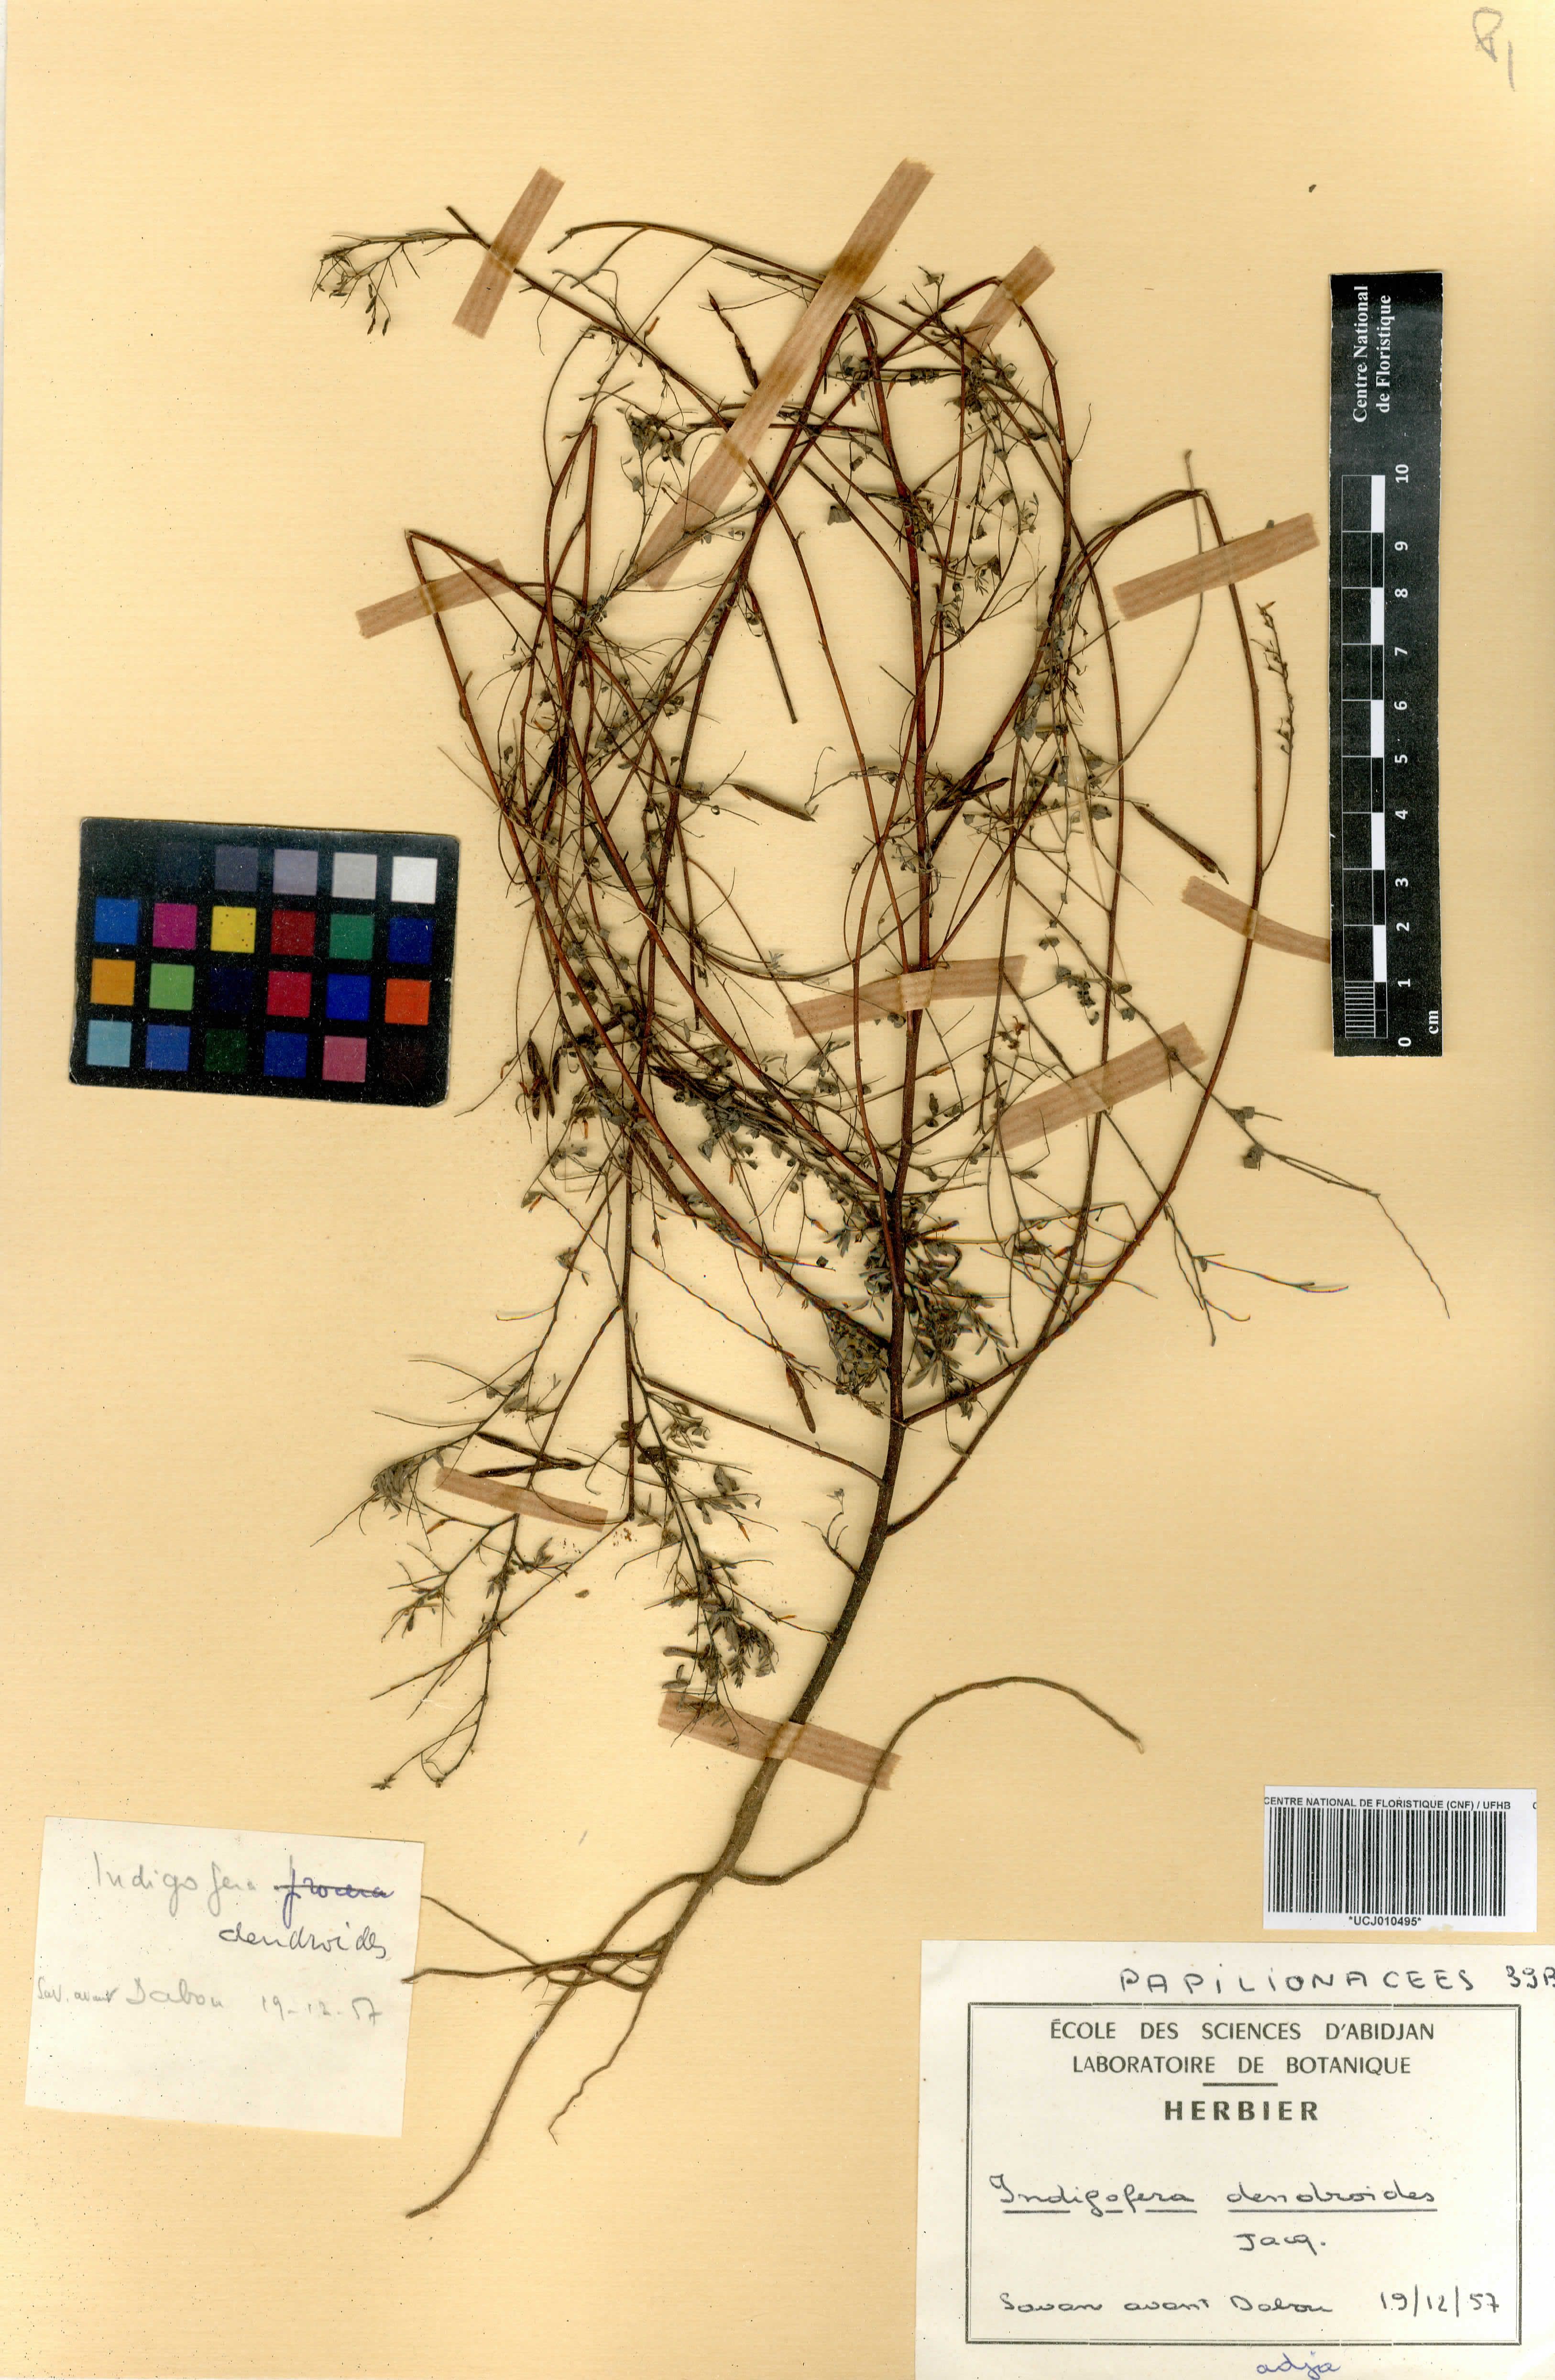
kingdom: Plantae
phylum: Tracheophyta
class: Magnoliopsida
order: Fabales
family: Fabaceae
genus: Indigofera
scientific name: Indigofera dendroides
